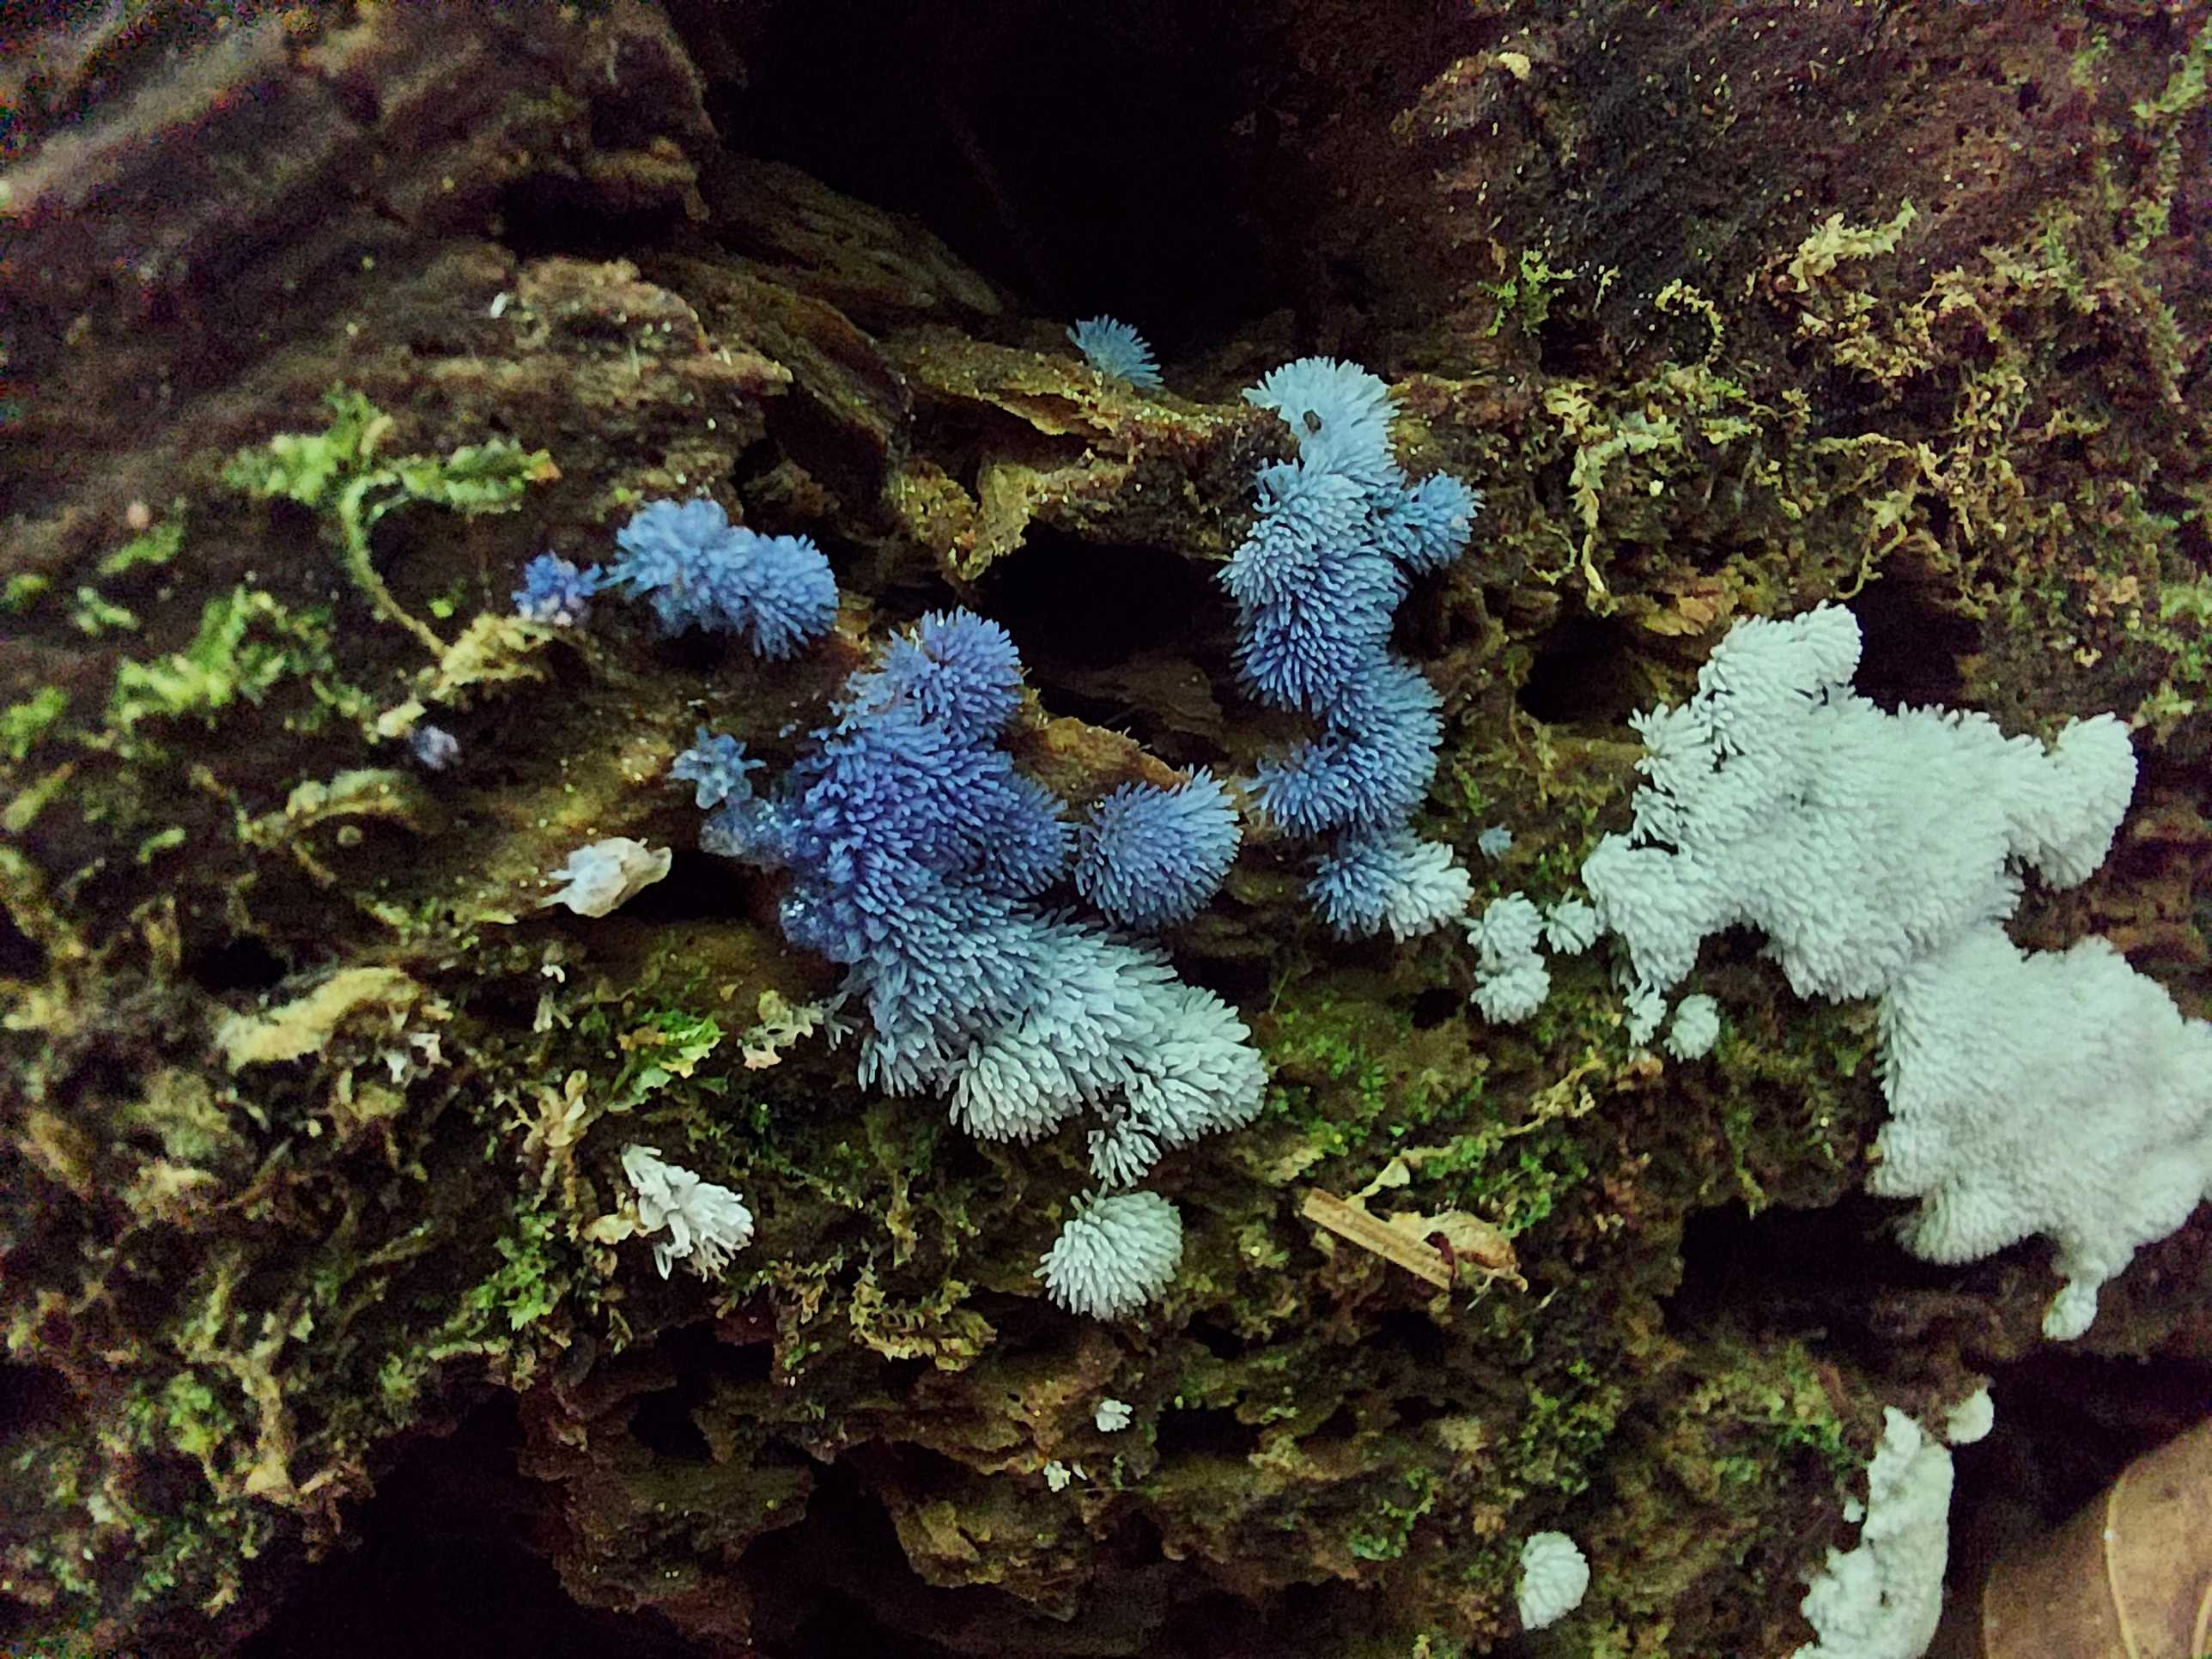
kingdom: Protozoa
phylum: Mycetozoa
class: Protosteliomycetes
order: Ceratiomyxales
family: Ceratiomyxaceae
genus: Ceratiomyxa
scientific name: Ceratiomyxa fruticulosa
